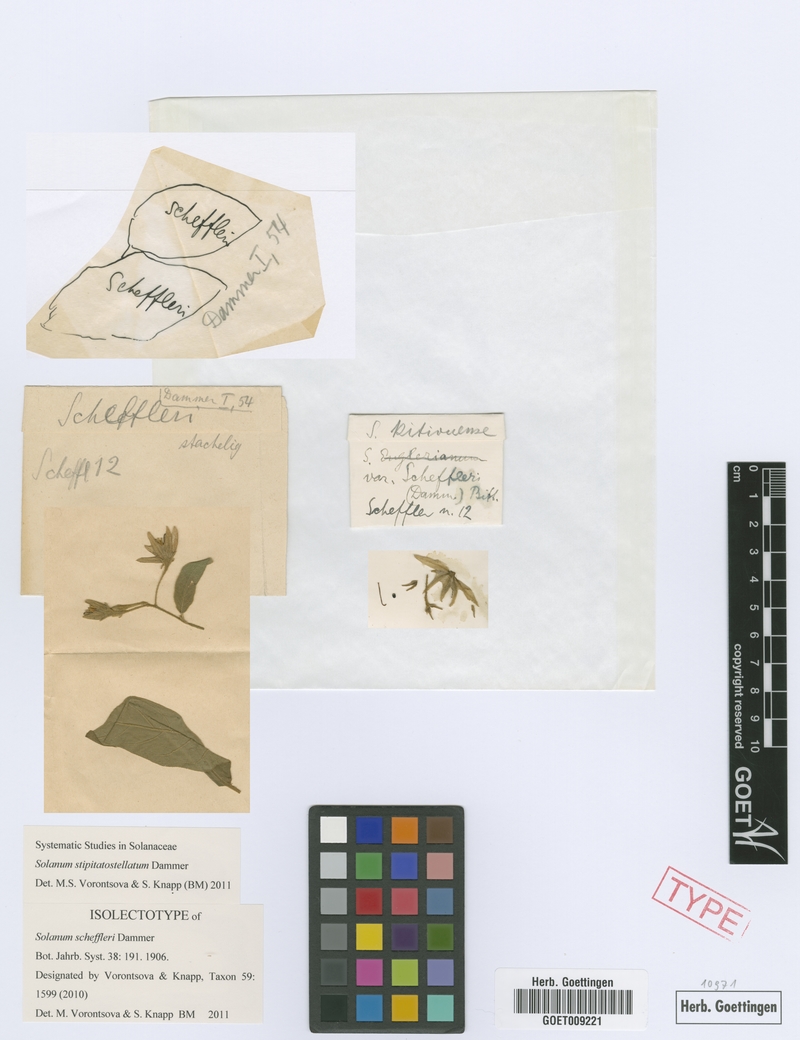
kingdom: Plantae
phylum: Tracheophyta
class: Magnoliopsida
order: Solanales
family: Solanaceae
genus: Solanum
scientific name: Solanum stipitatostellatum
